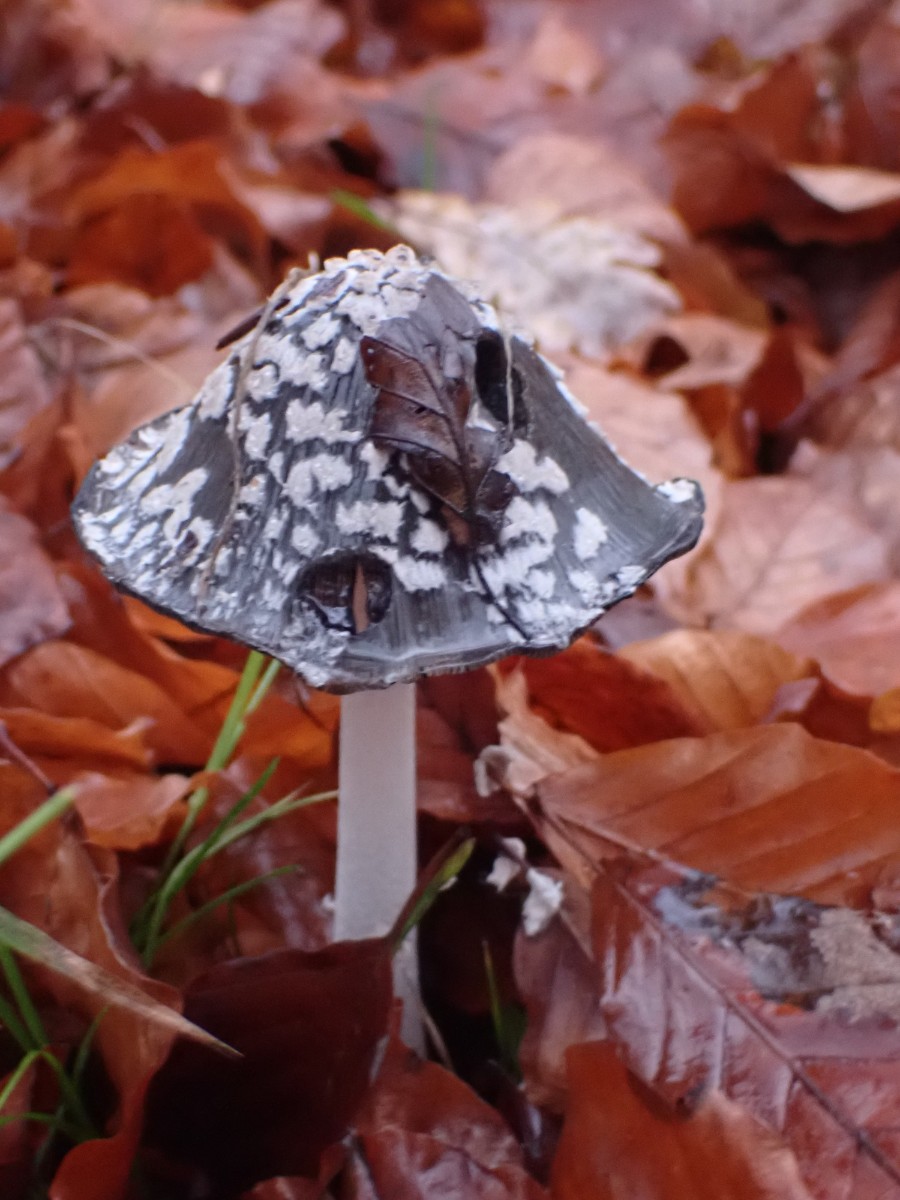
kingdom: Fungi
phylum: Basidiomycota
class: Agaricomycetes
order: Agaricales
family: Psathyrellaceae
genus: Coprinopsis
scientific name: Coprinopsis picacea
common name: skade-blækhat
